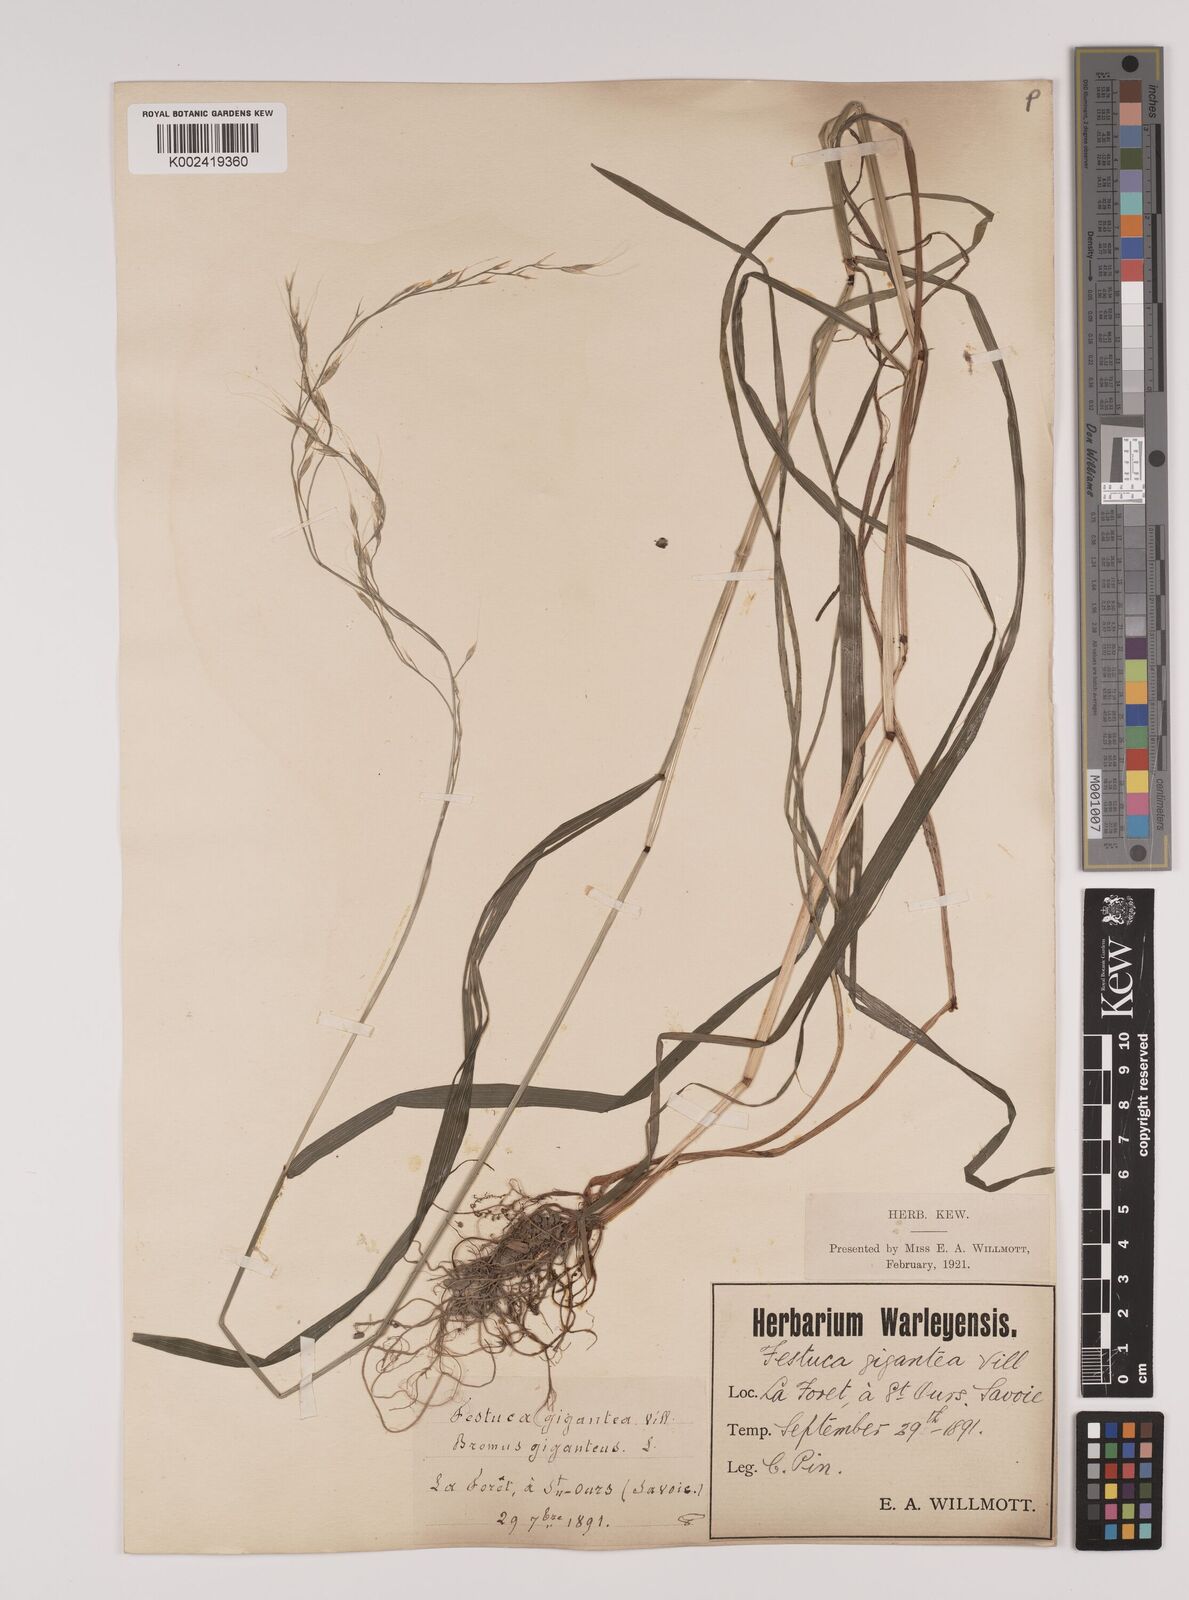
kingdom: Plantae
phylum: Tracheophyta
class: Liliopsida
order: Poales
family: Poaceae
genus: Lolium
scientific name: Lolium giganteum
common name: Giant fescue
